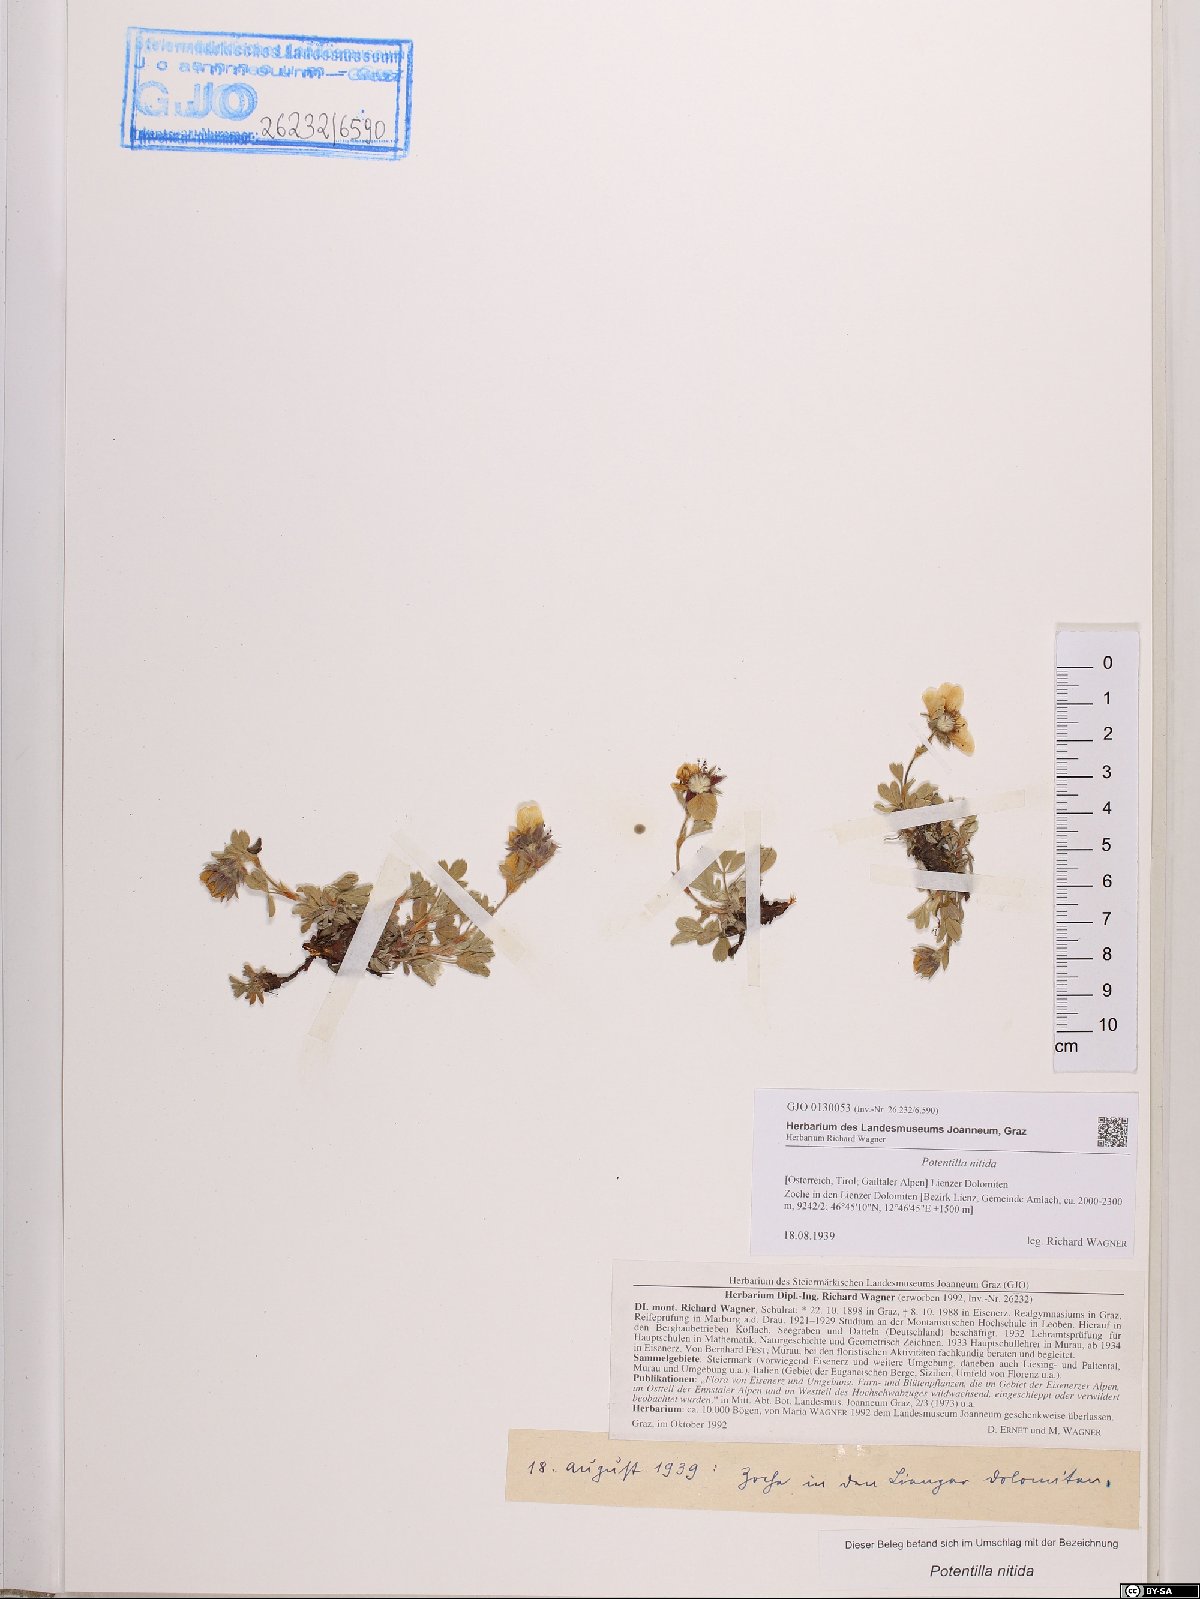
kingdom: Plantae
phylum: Tracheophyta
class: Magnoliopsida
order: Rosales
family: Rosaceae
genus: Potentilla
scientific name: Potentilla nitida
